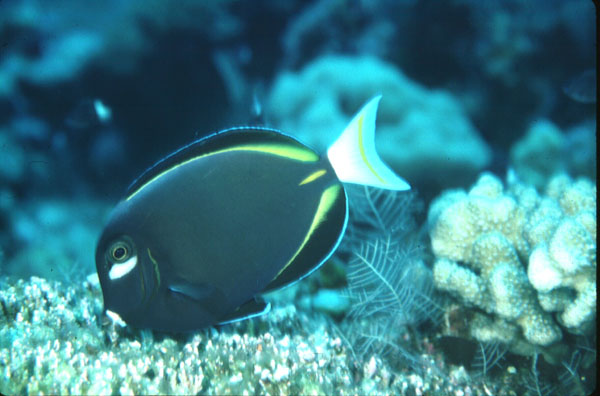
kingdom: Animalia
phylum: Chordata
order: Perciformes
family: Acanthuridae
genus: Acanthurus
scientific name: Acanthurus nigricans
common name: Whitecheek surgeonfish
